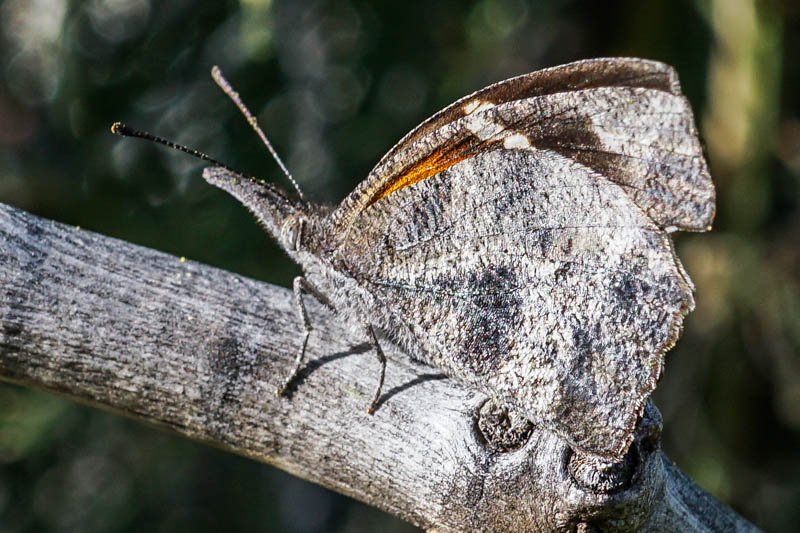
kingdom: Animalia
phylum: Arthropoda
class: Insecta
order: Lepidoptera
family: Nymphalidae
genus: Libytheana
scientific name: Libytheana carinenta
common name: American Snout
